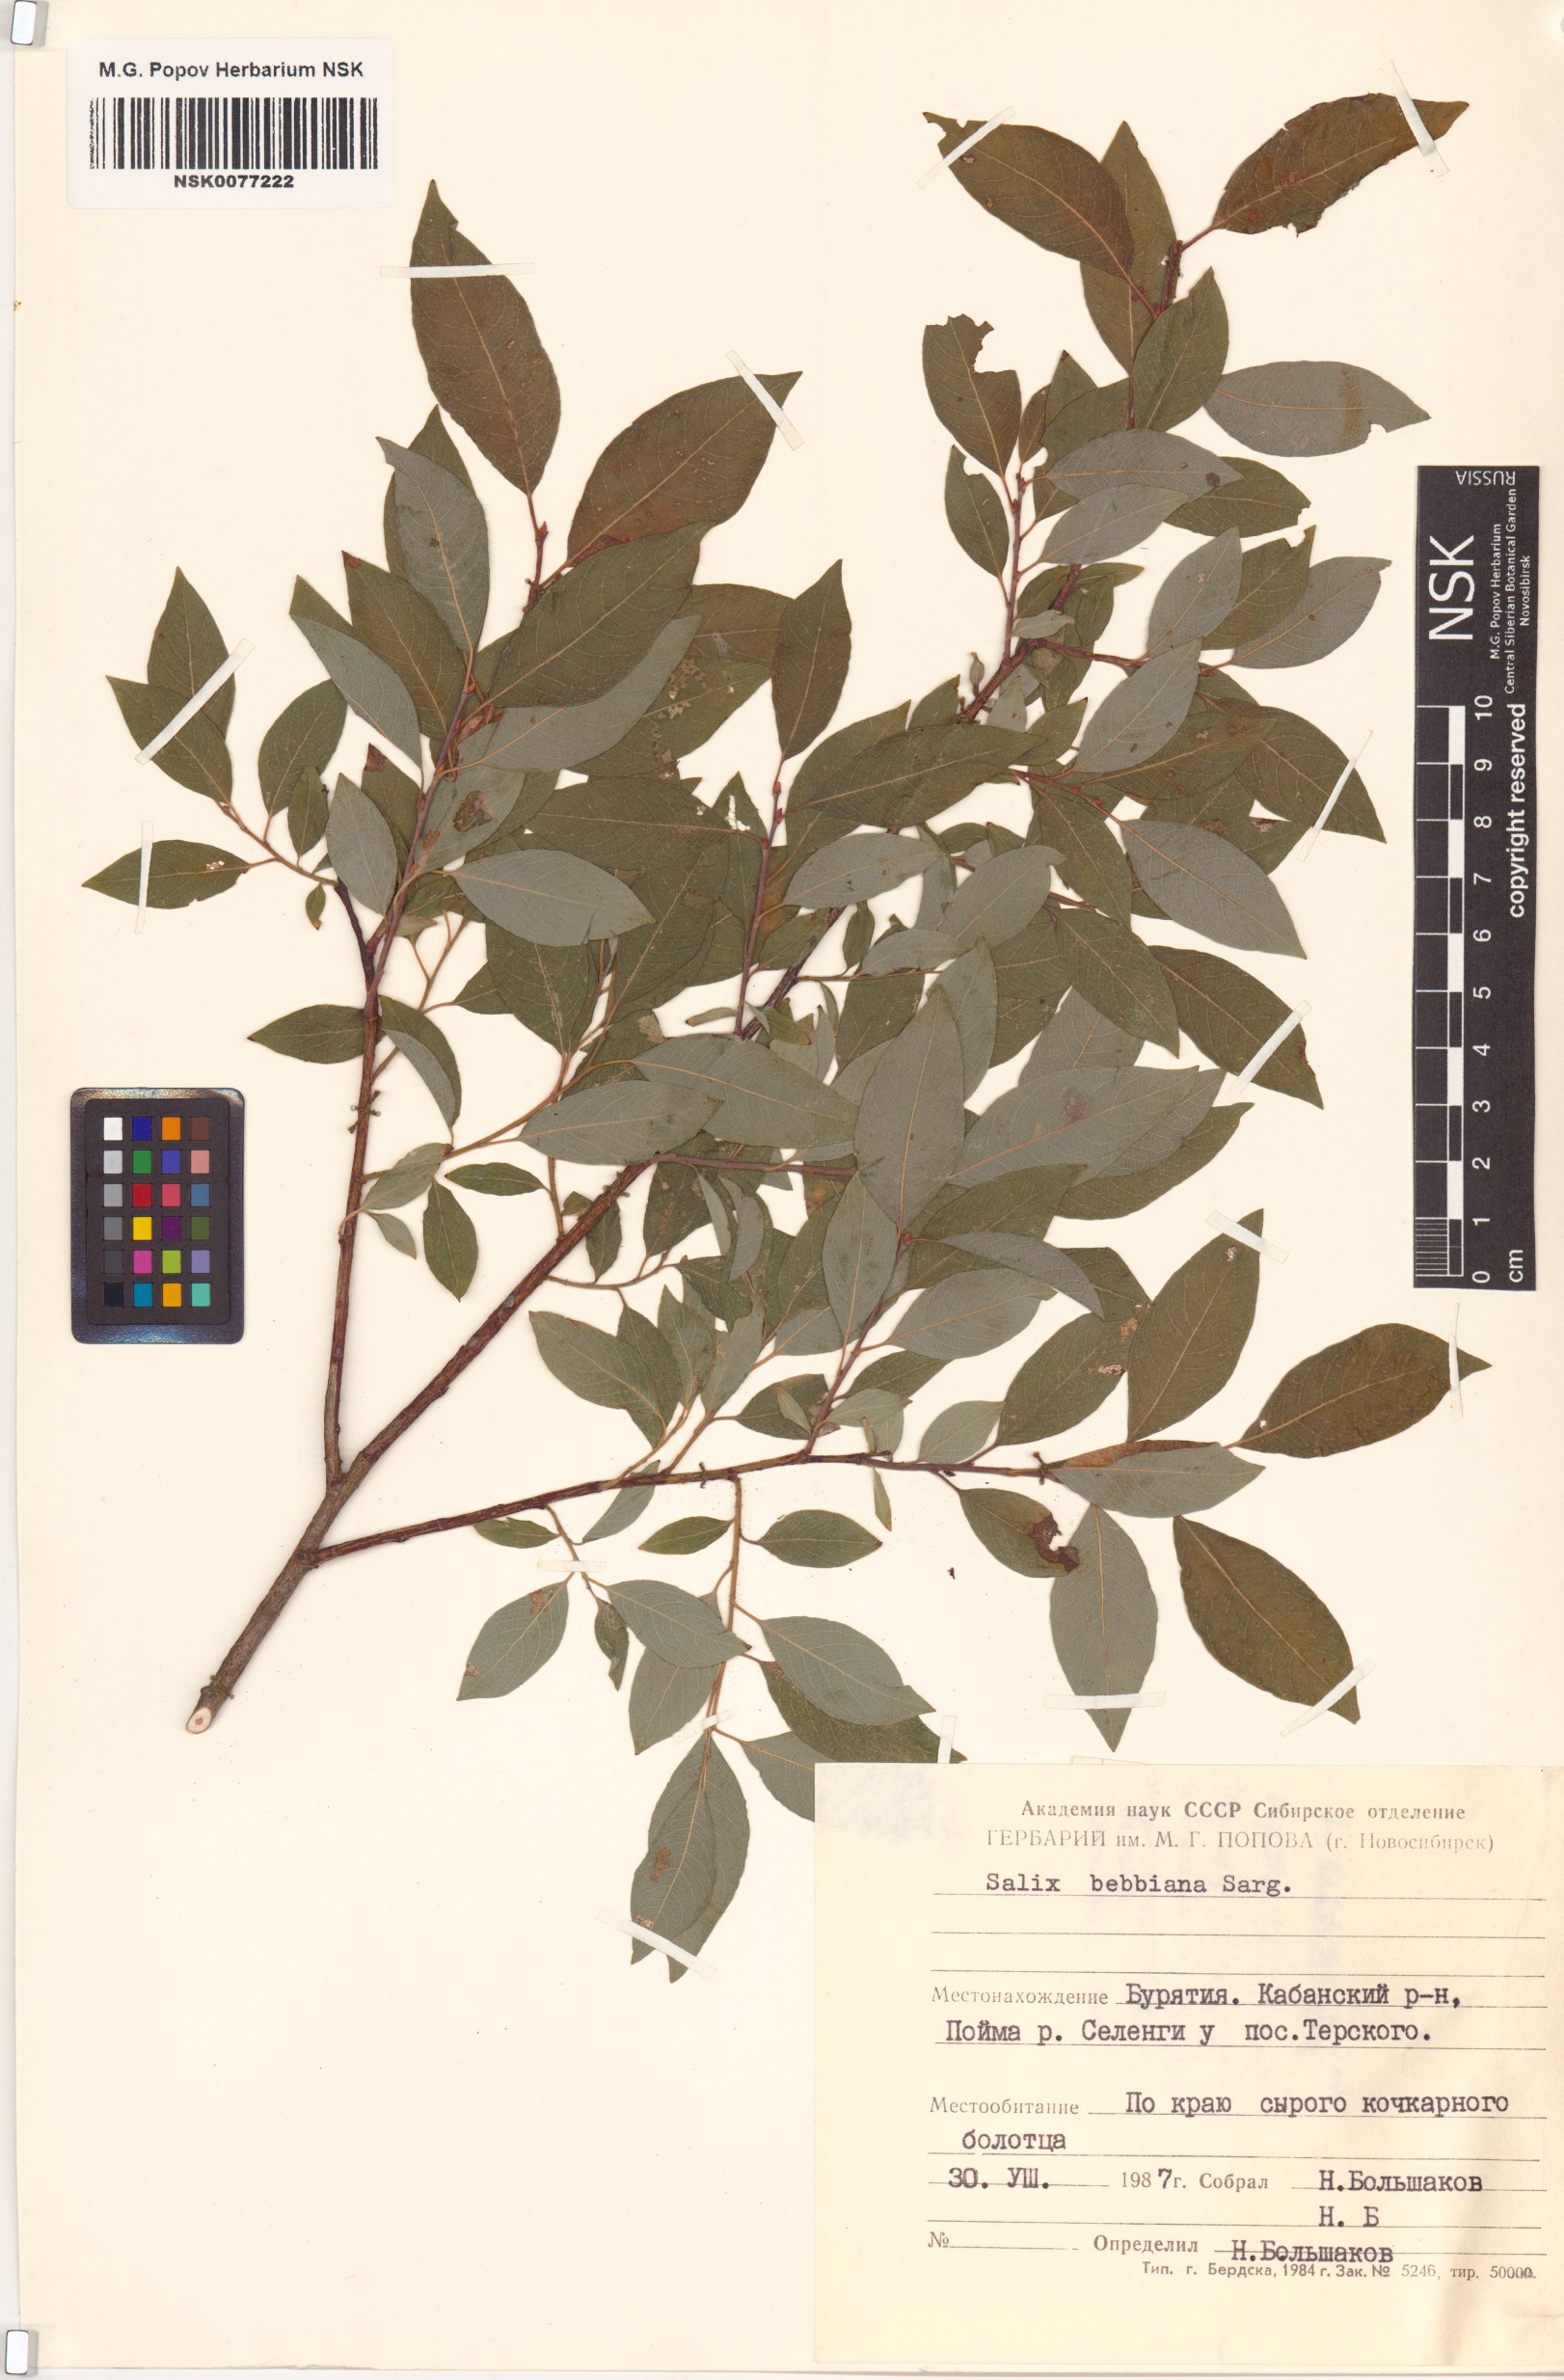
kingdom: Plantae
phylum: Tracheophyta
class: Magnoliopsida
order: Malpighiales
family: Salicaceae
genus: Salix
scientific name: Salix bebbiana
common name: Bebb's willow
